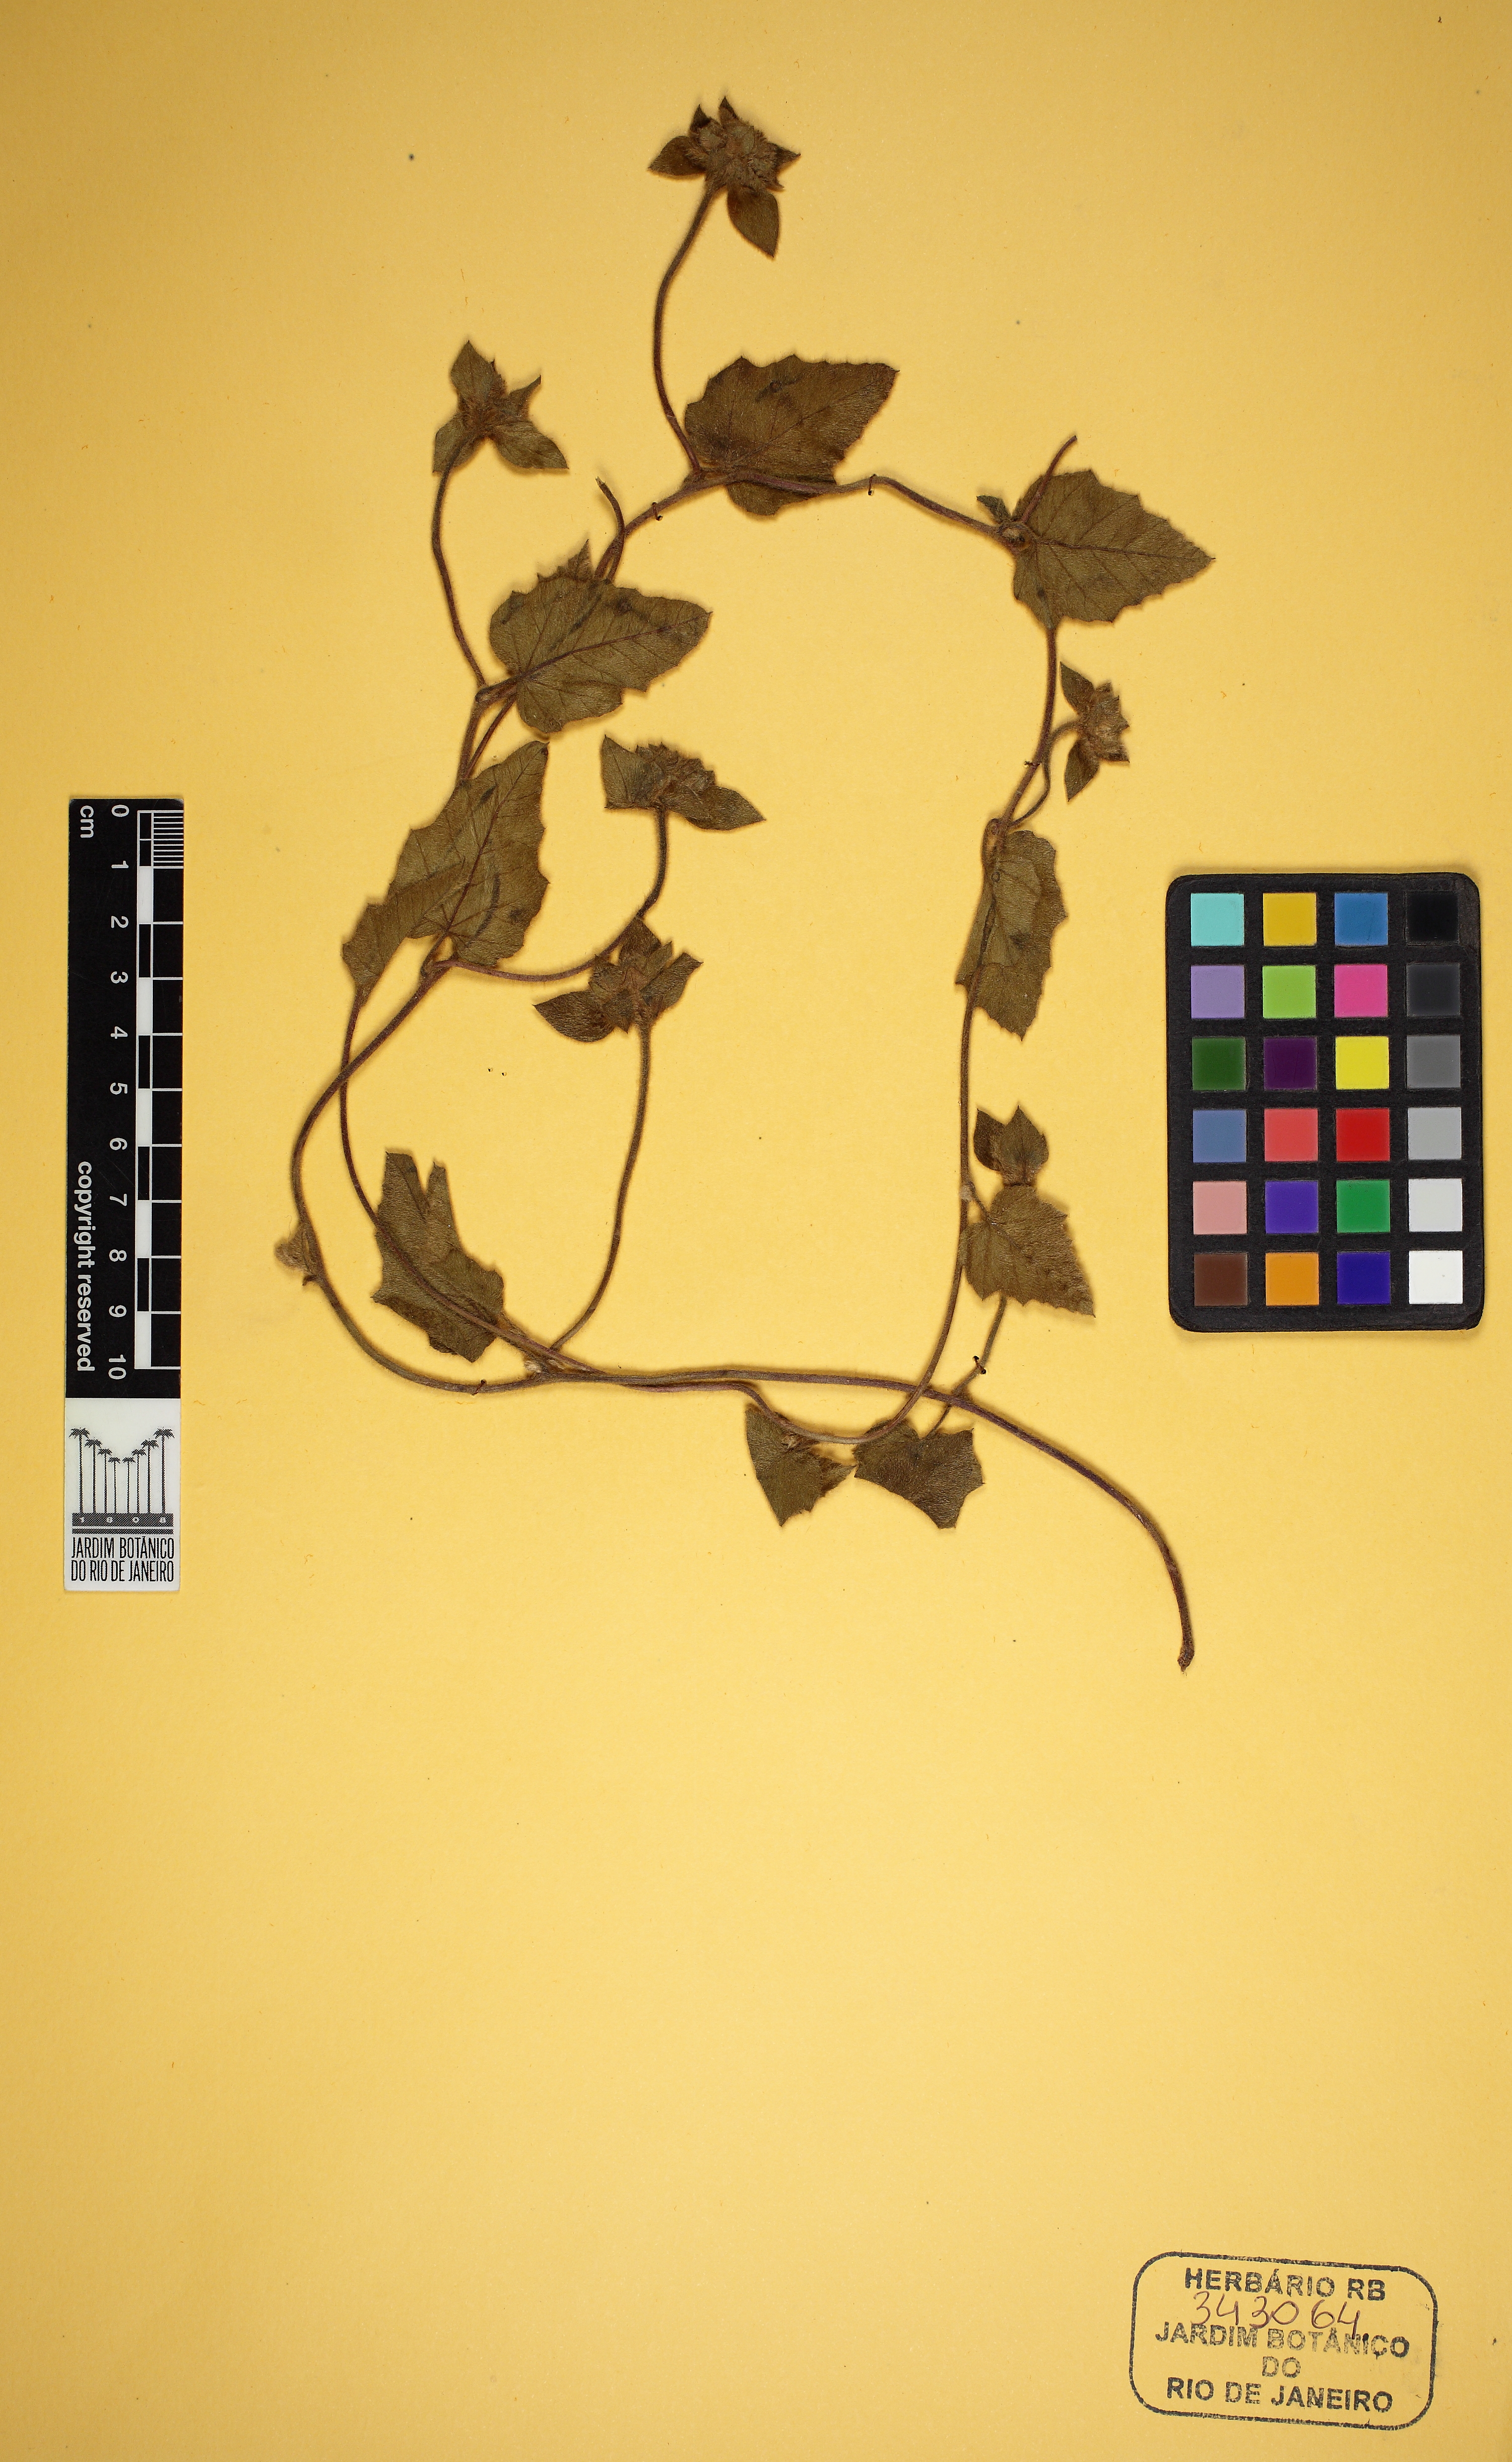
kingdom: Plantae
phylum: Tracheophyta
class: Magnoliopsida
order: Solanales
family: Convolvulaceae
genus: Daustinia
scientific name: Daustinia montana
